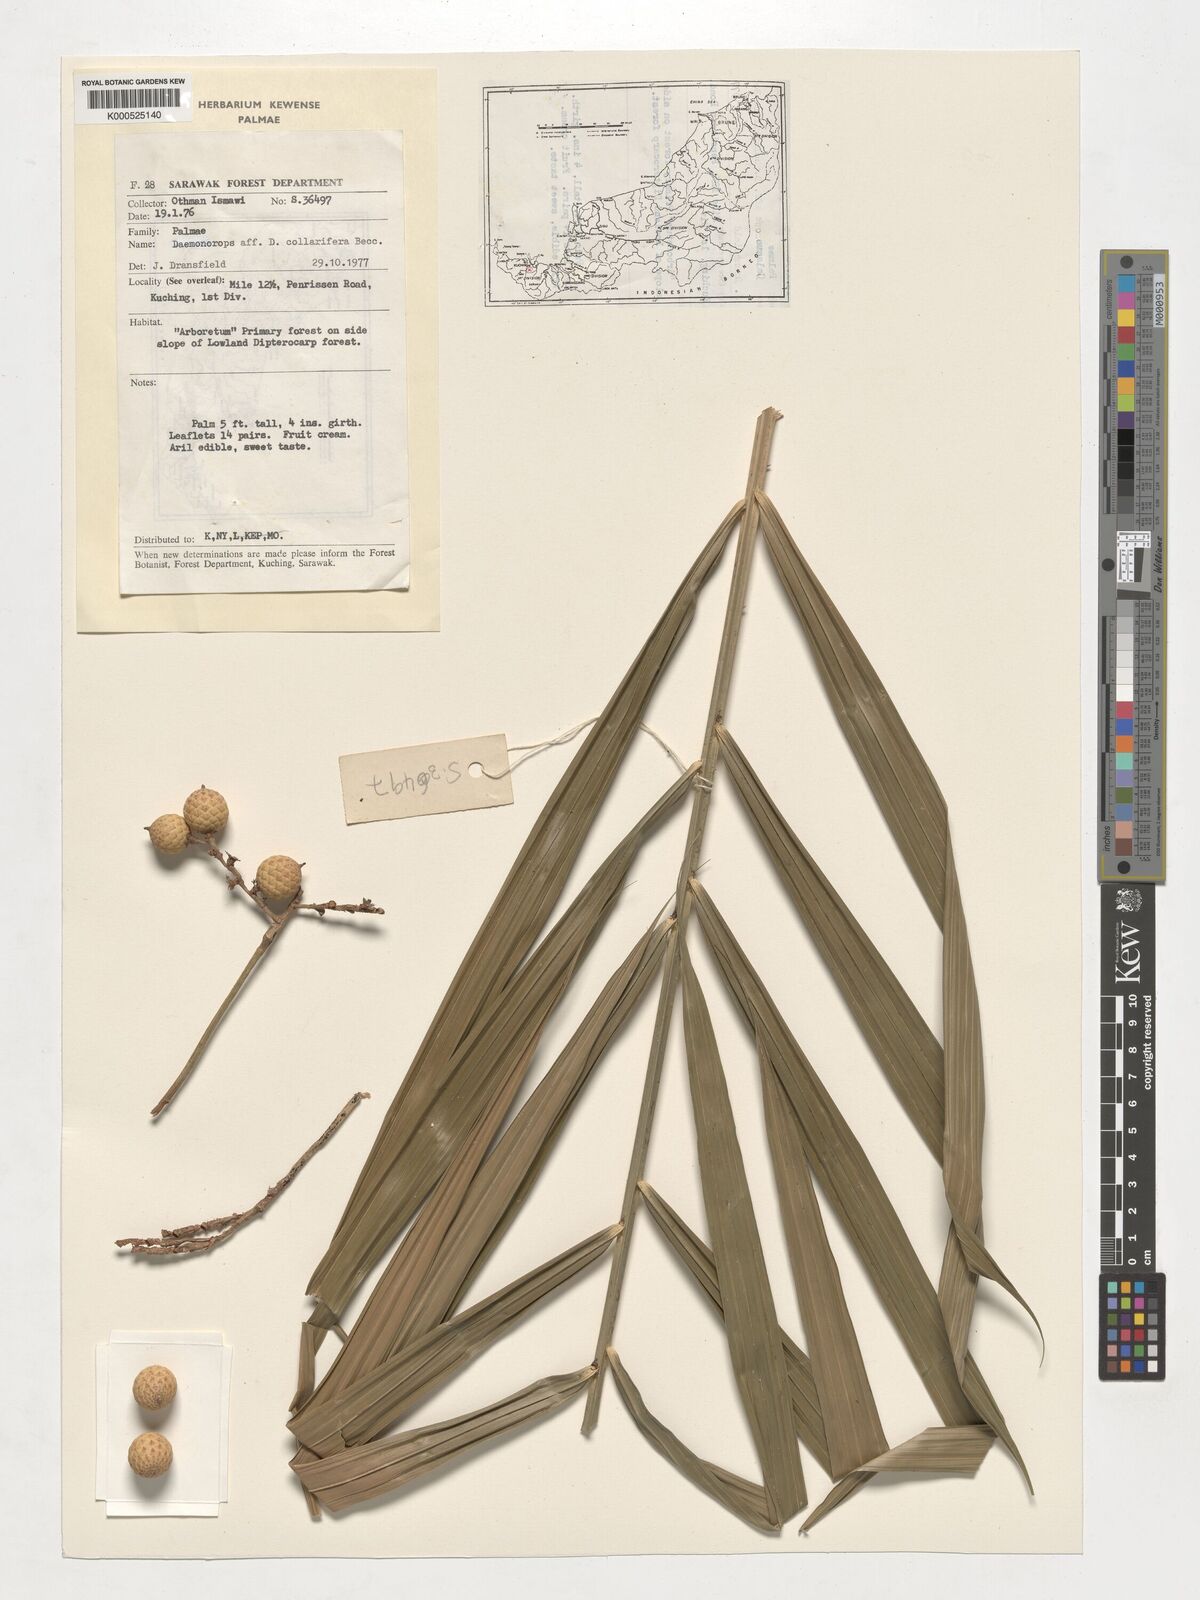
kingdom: Plantae
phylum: Tracheophyta
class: Liliopsida
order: Arecales
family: Arecaceae
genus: Calamus
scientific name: Calamus geniculatus
